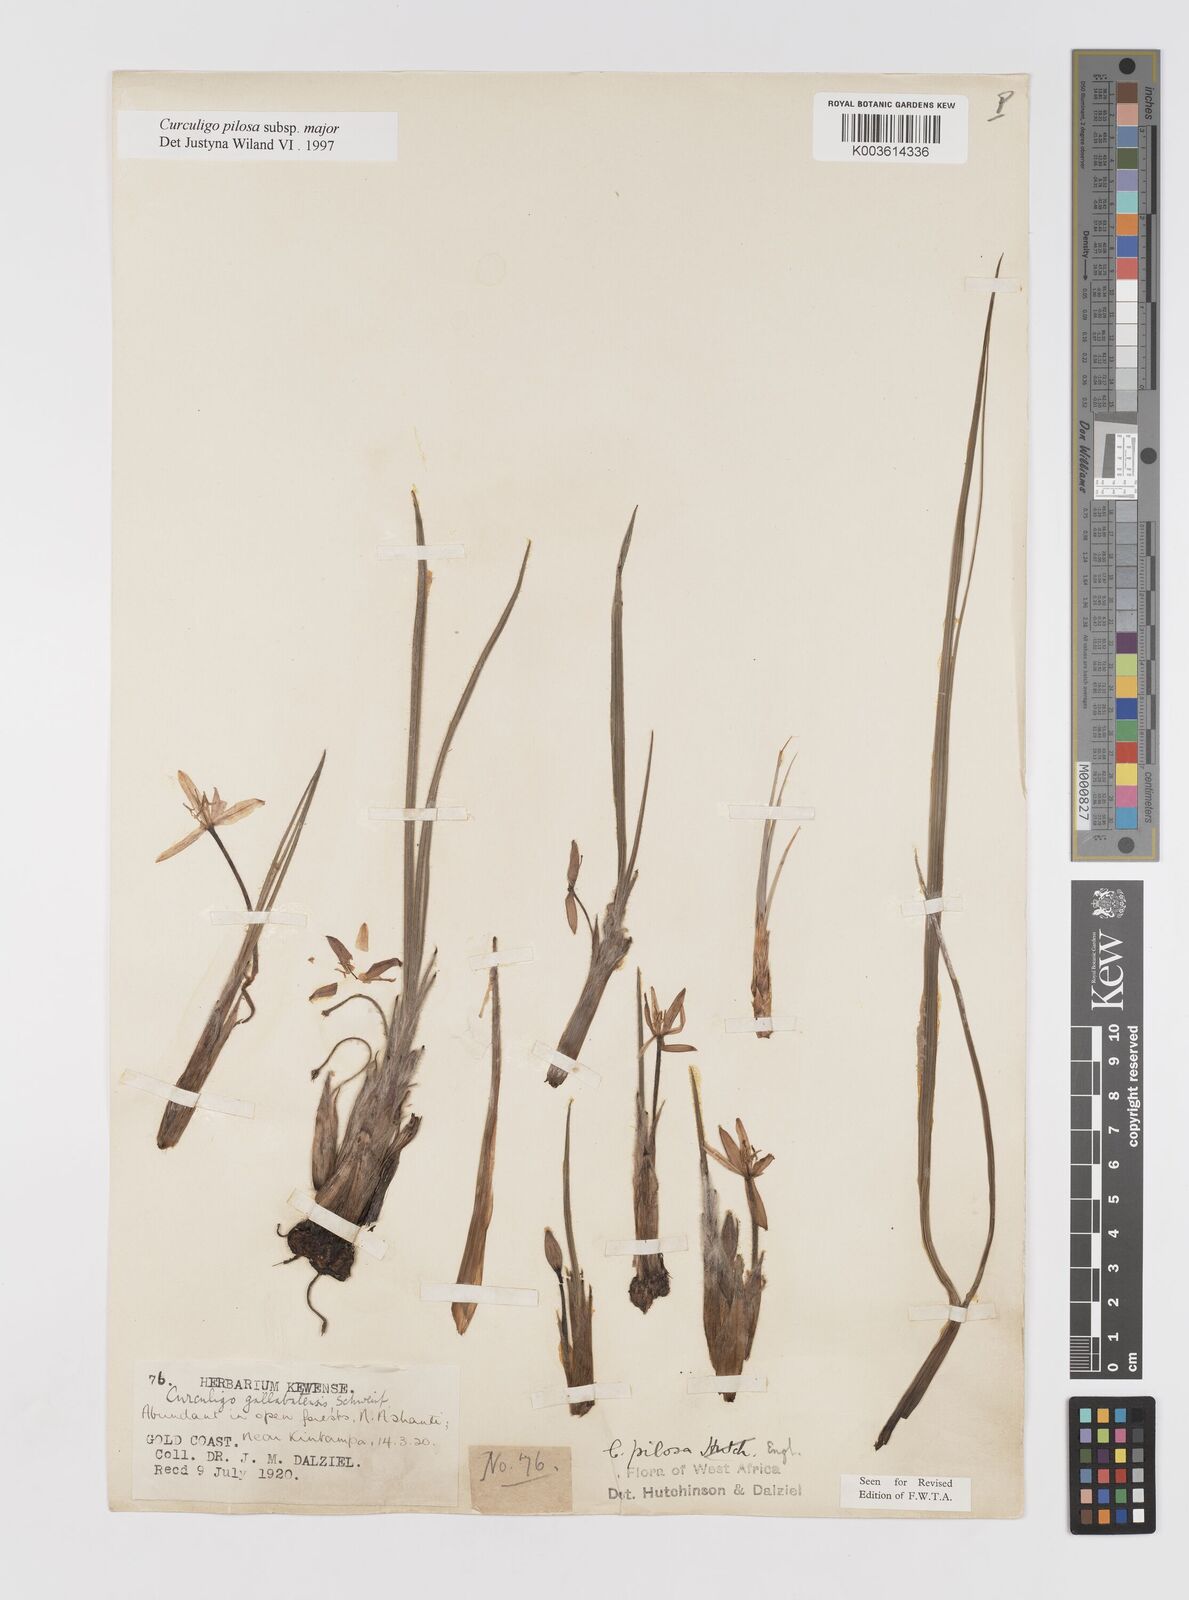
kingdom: Plantae
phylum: Tracheophyta
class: Liliopsida
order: Asparagales
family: Hypoxidaceae
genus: Curculigo
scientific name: Curculigo pilosa
